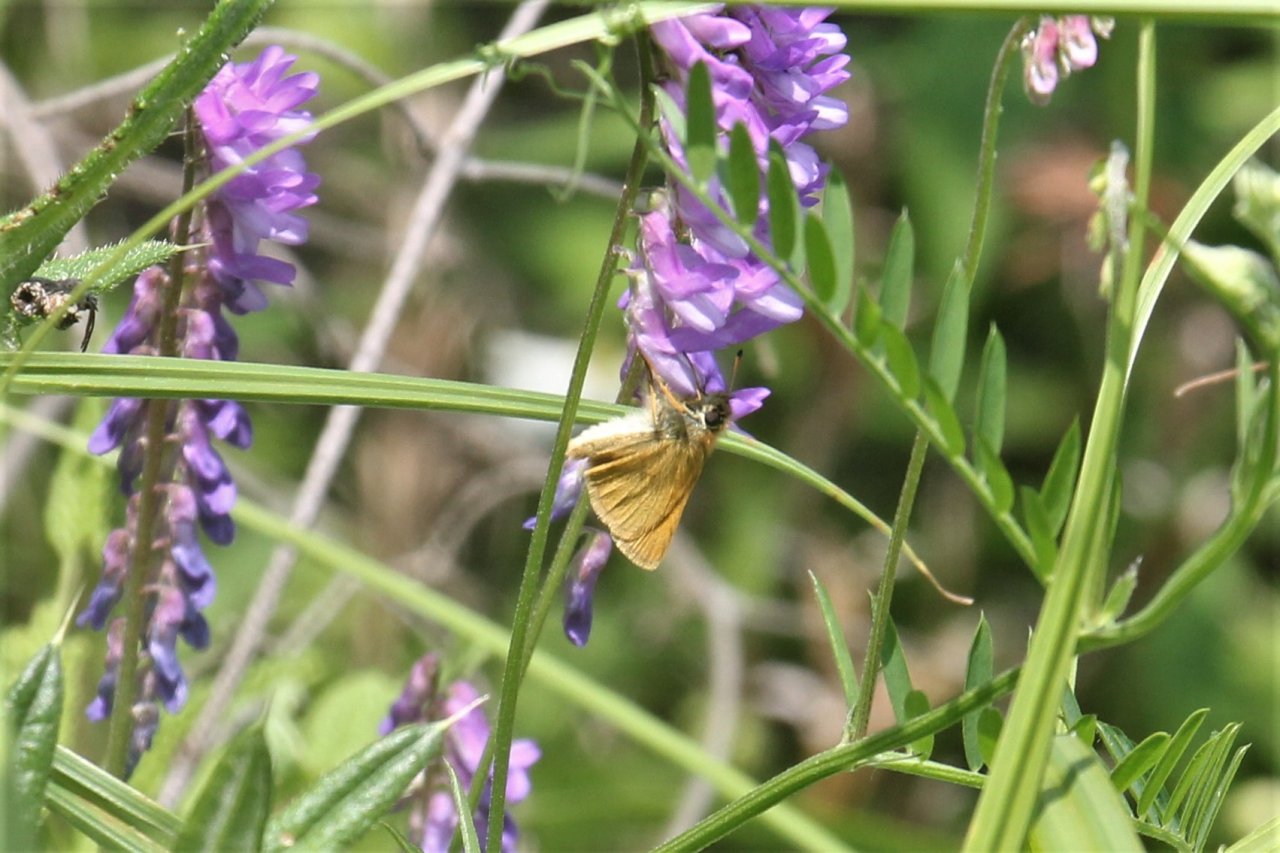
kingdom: Animalia
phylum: Arthropoda
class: Insecta
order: Lepidoptera
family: Hesperiidae
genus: Thymelicus
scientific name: Thymelicus lineola
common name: European Skipper
